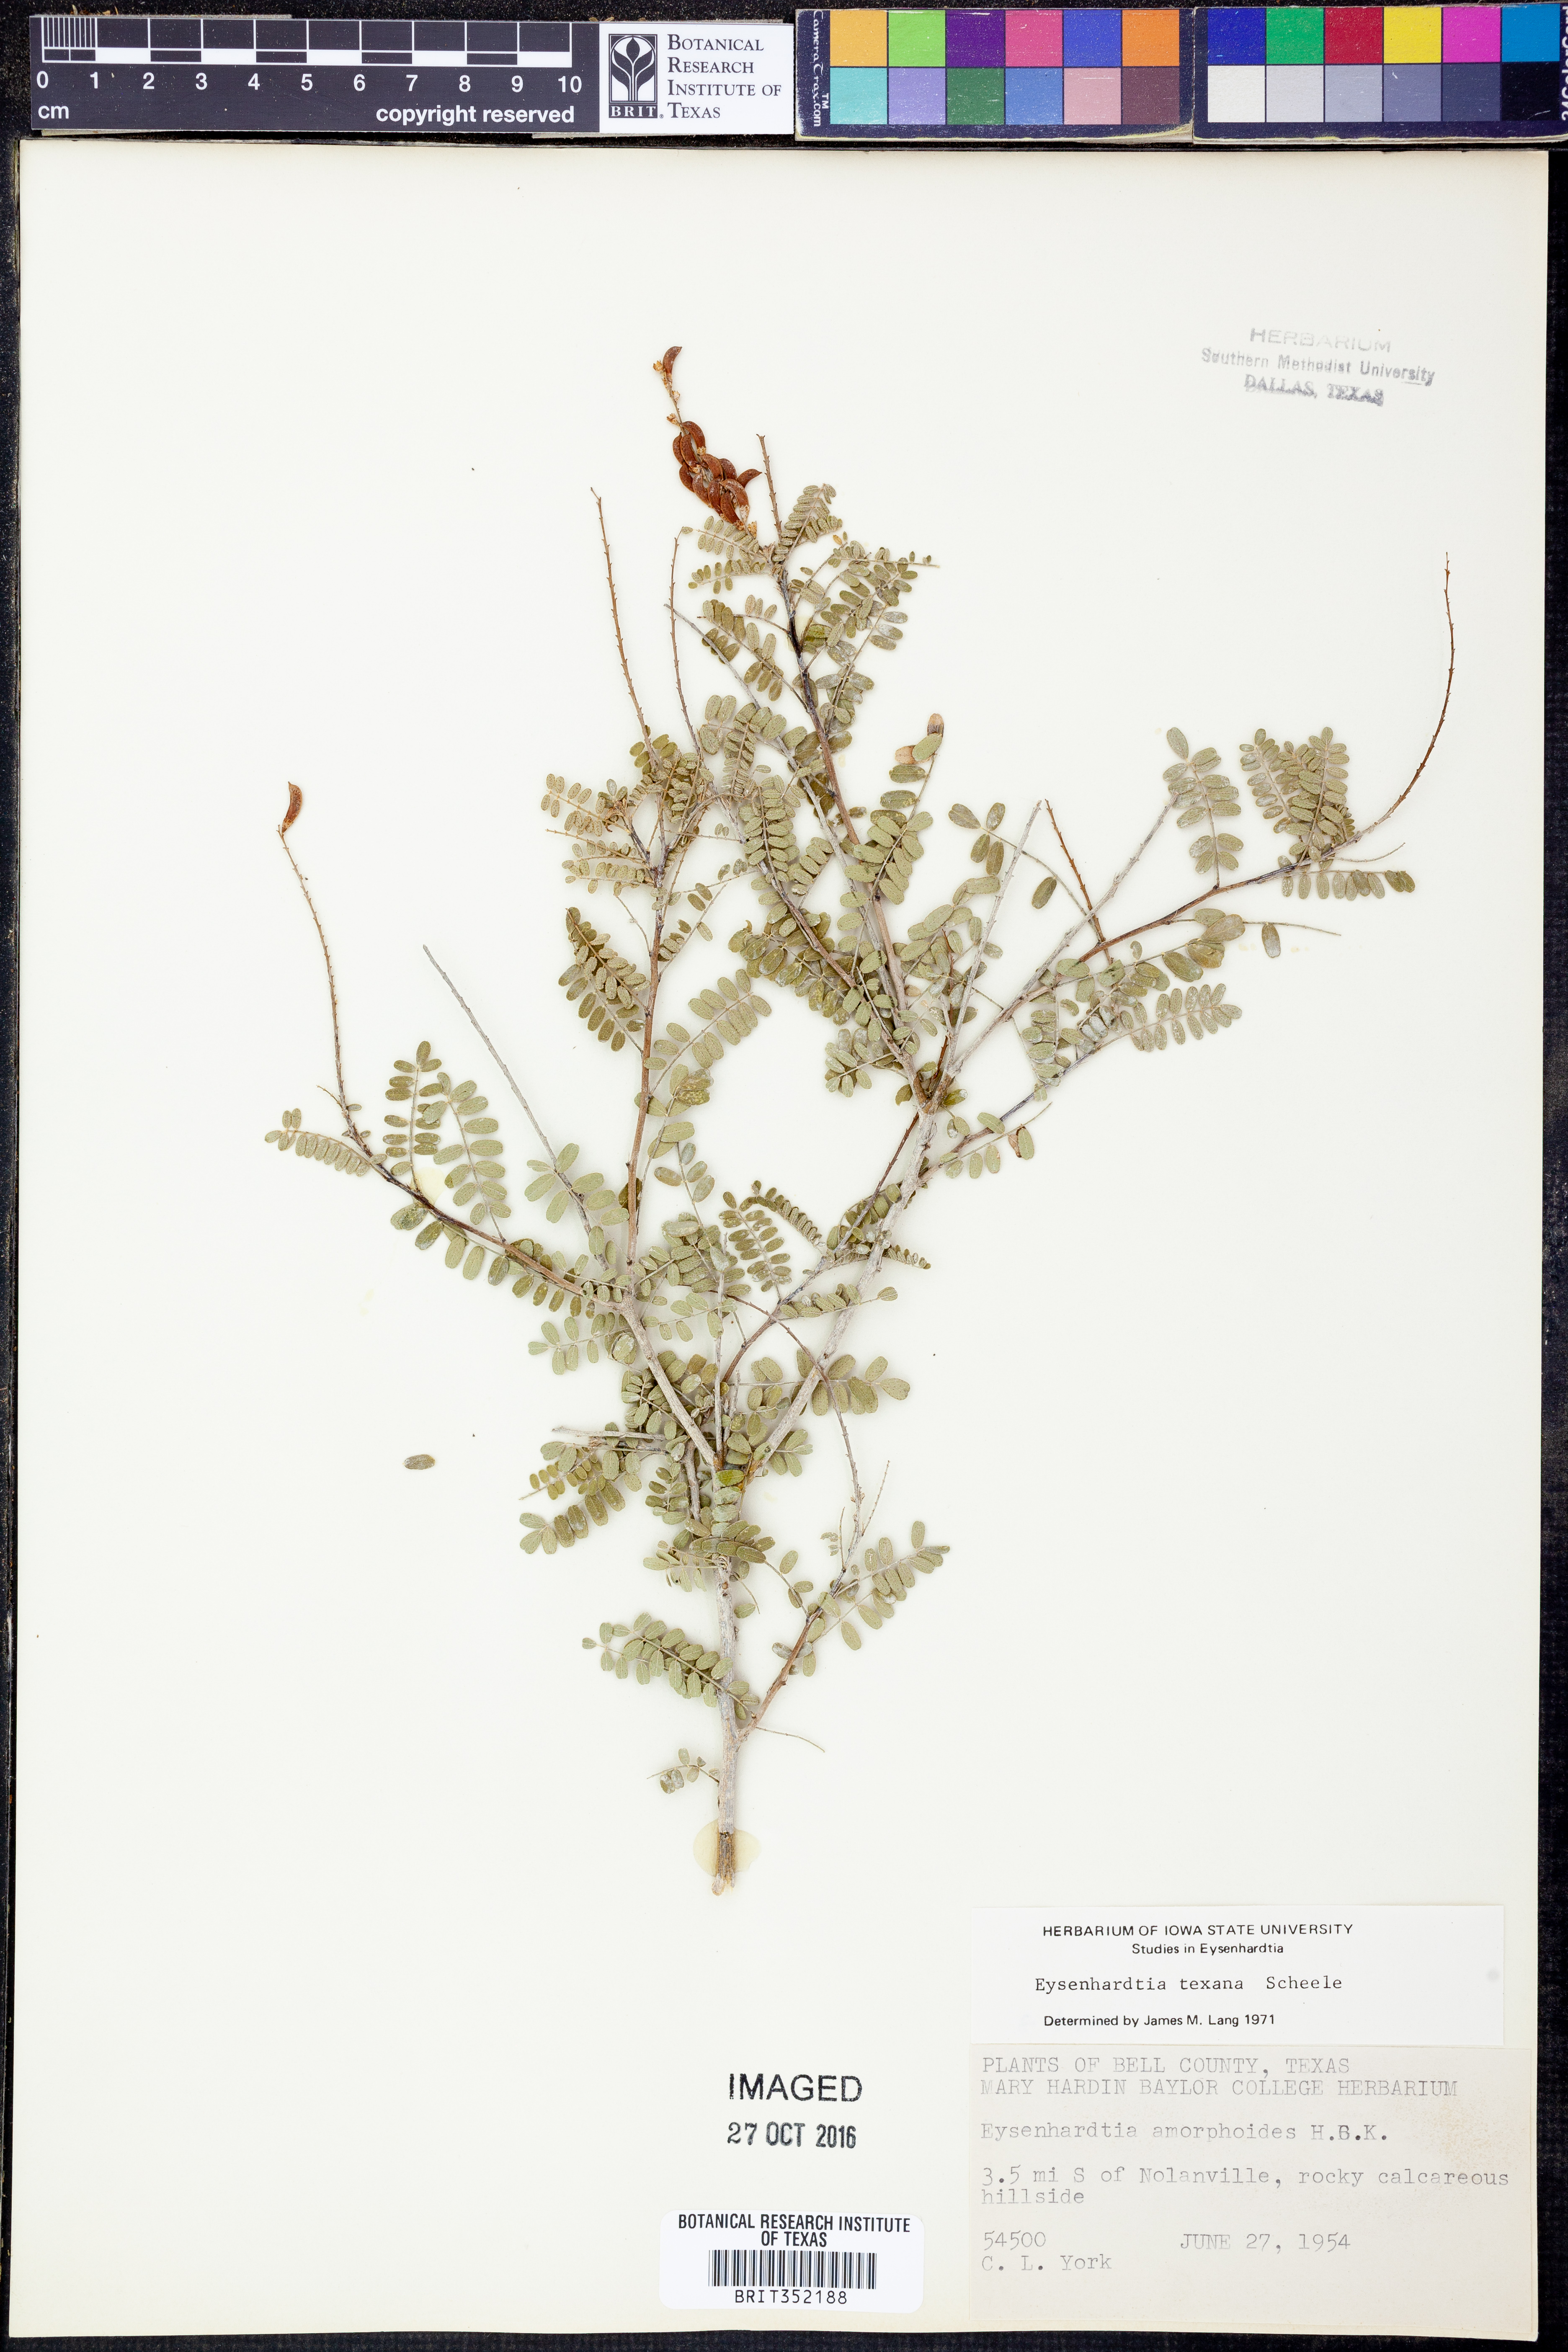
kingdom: Plantae
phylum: Tracheophyta
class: Magnoliopsida
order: Fabales
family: Fabaceae
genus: Eysenhardtia
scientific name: Eysenhardtia texana
